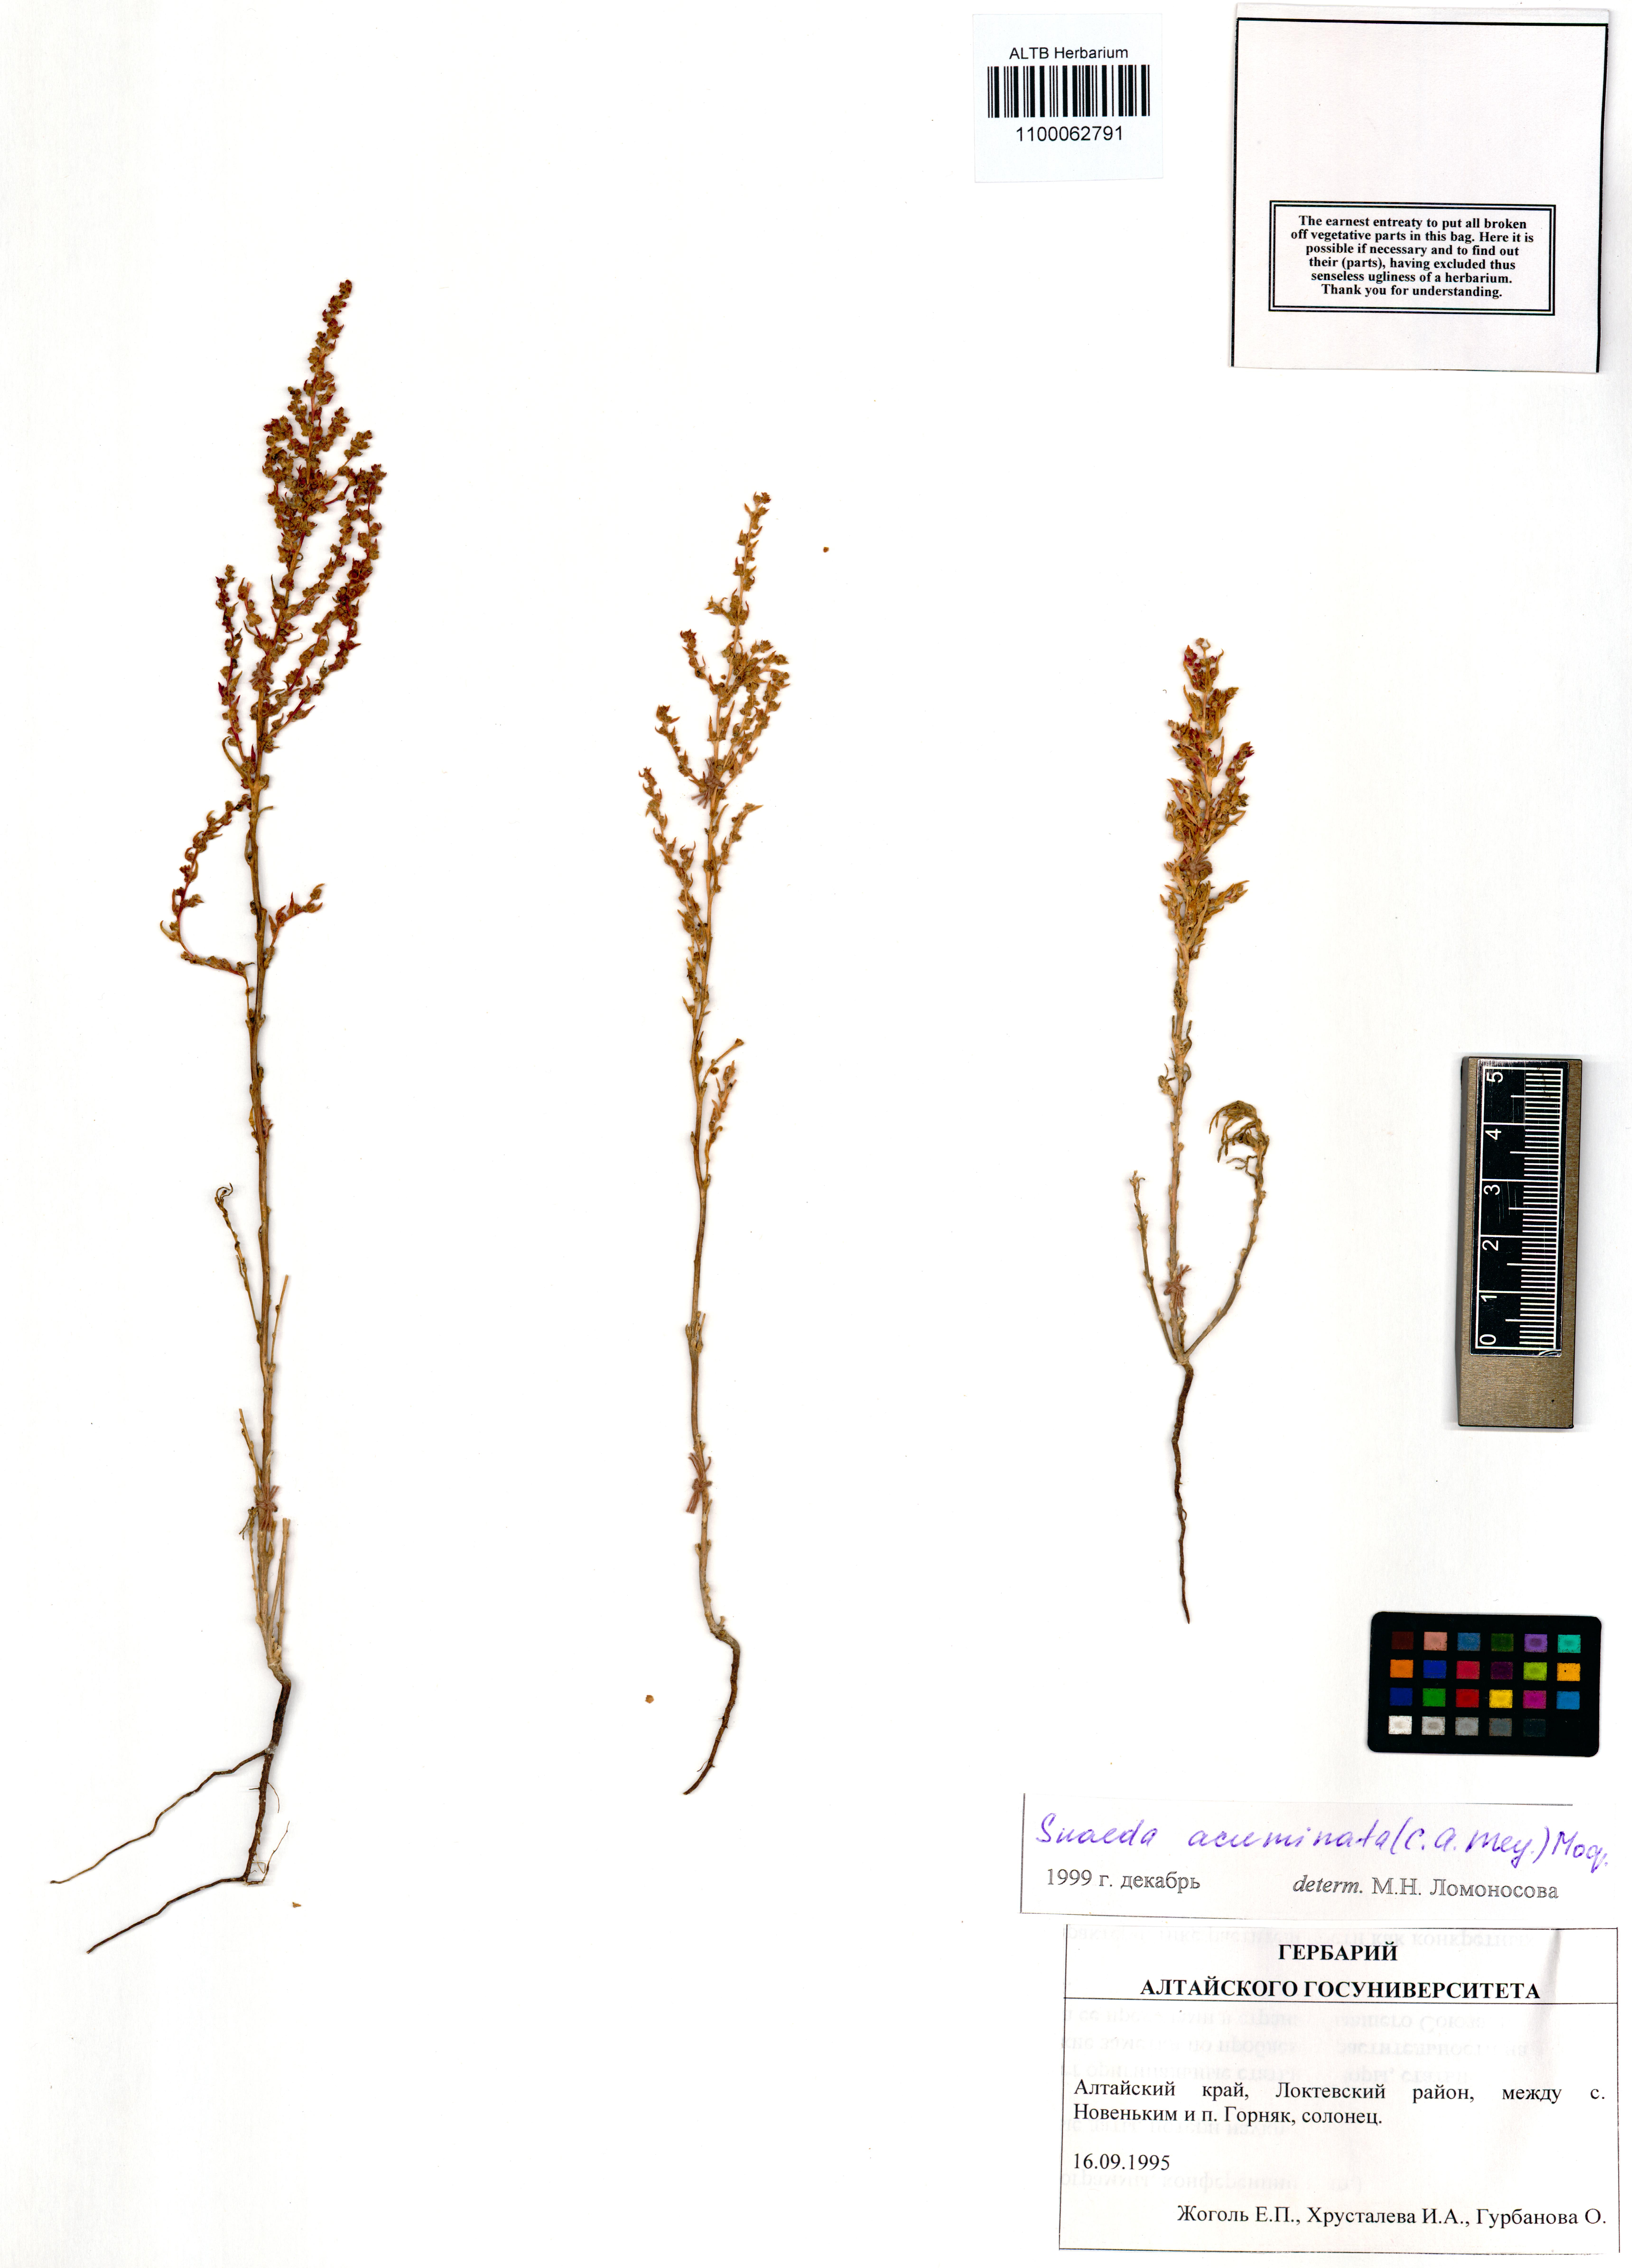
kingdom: Plantae
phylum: Tracheophyta
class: Magnoliopsida
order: Caryophyllales
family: Amaranthaceae
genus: Suaeda
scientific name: Suaeda acuminata
